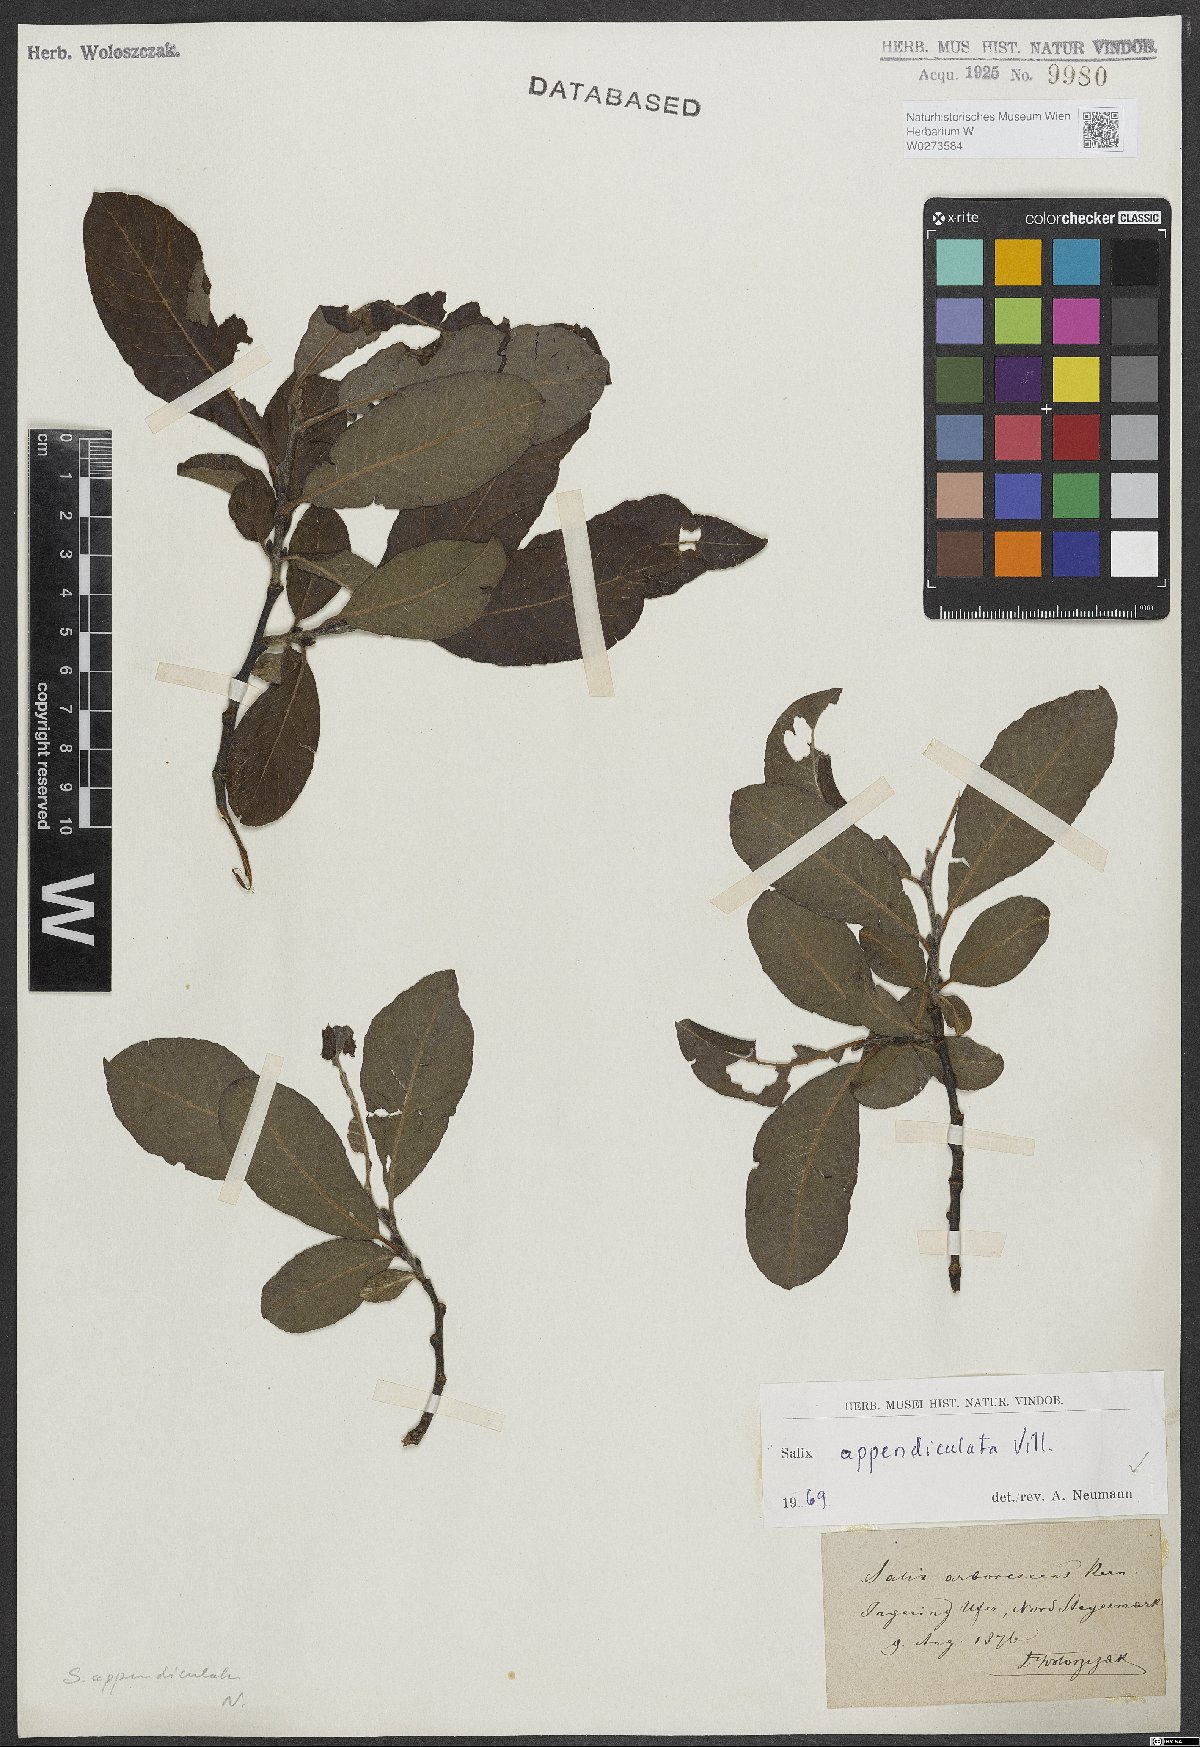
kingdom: Plantae
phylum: Tracheophyta
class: Magnoliopsida
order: Malpighiales
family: Salicaceae
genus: Salix
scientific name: Salix appendiculata
